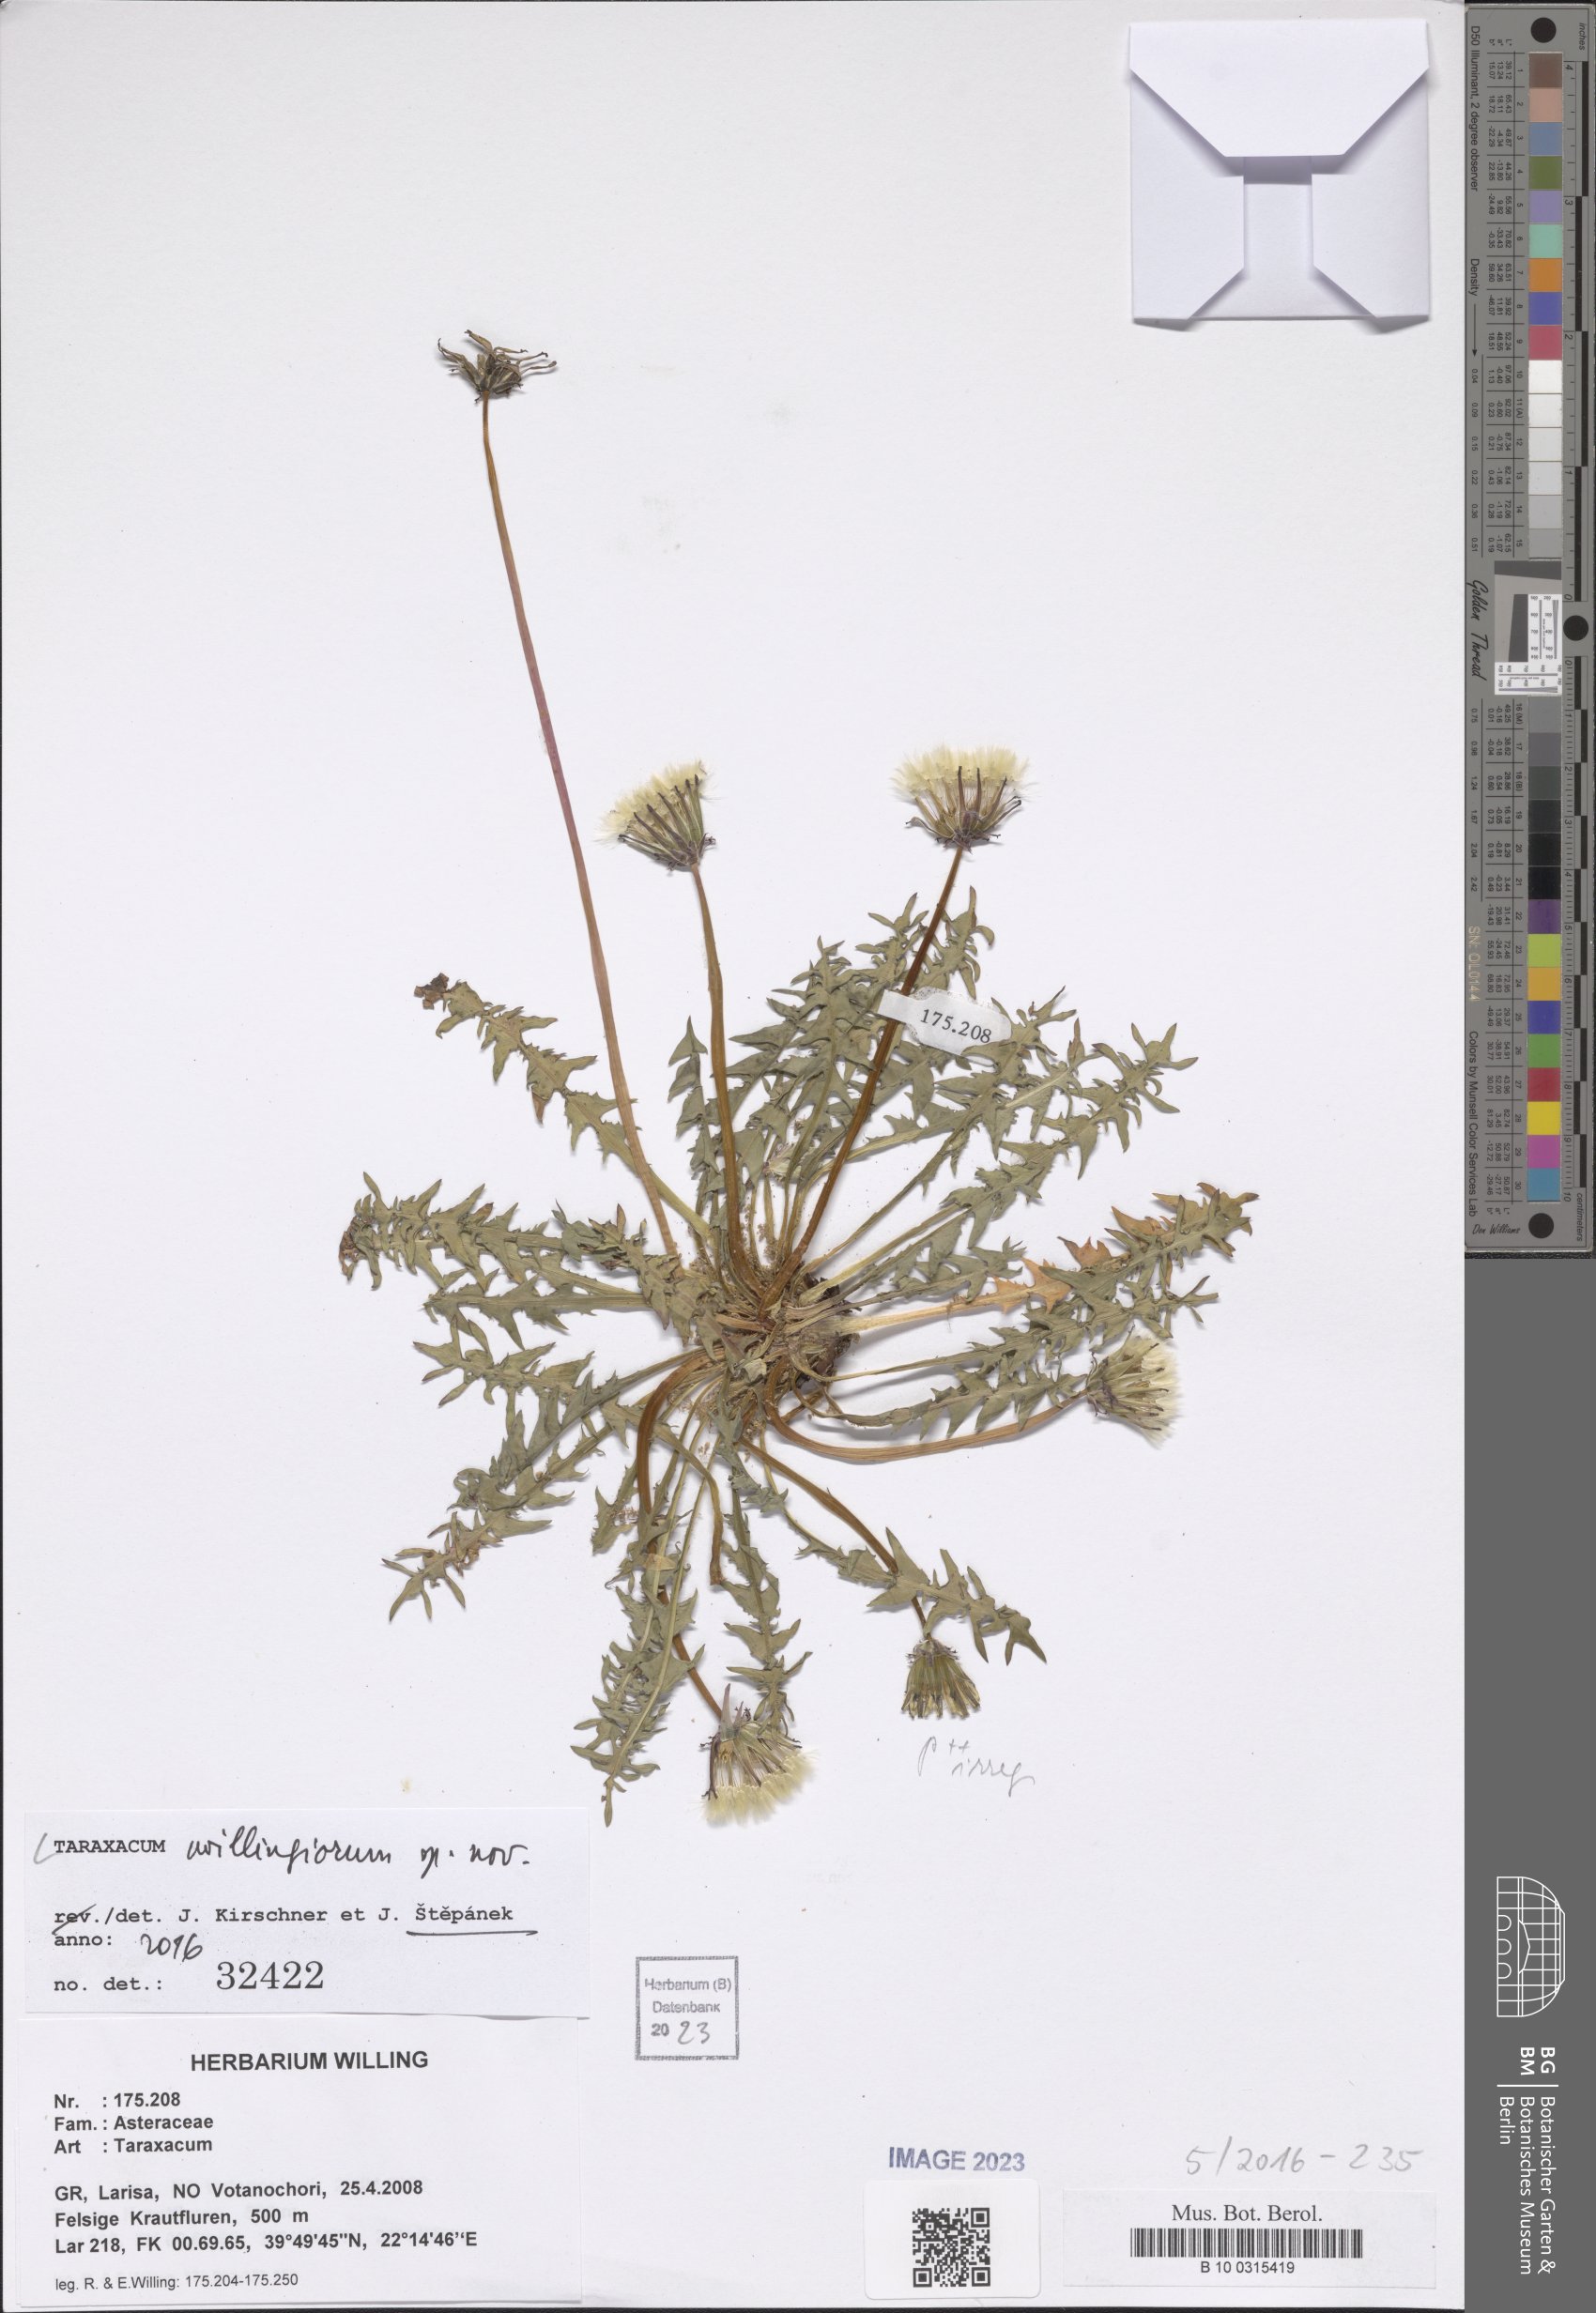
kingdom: Plantae
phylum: Tracheophyta
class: Magnoliopsida
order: Asterales
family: Asteraceae
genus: Taraxacum
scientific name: Taraxacum
